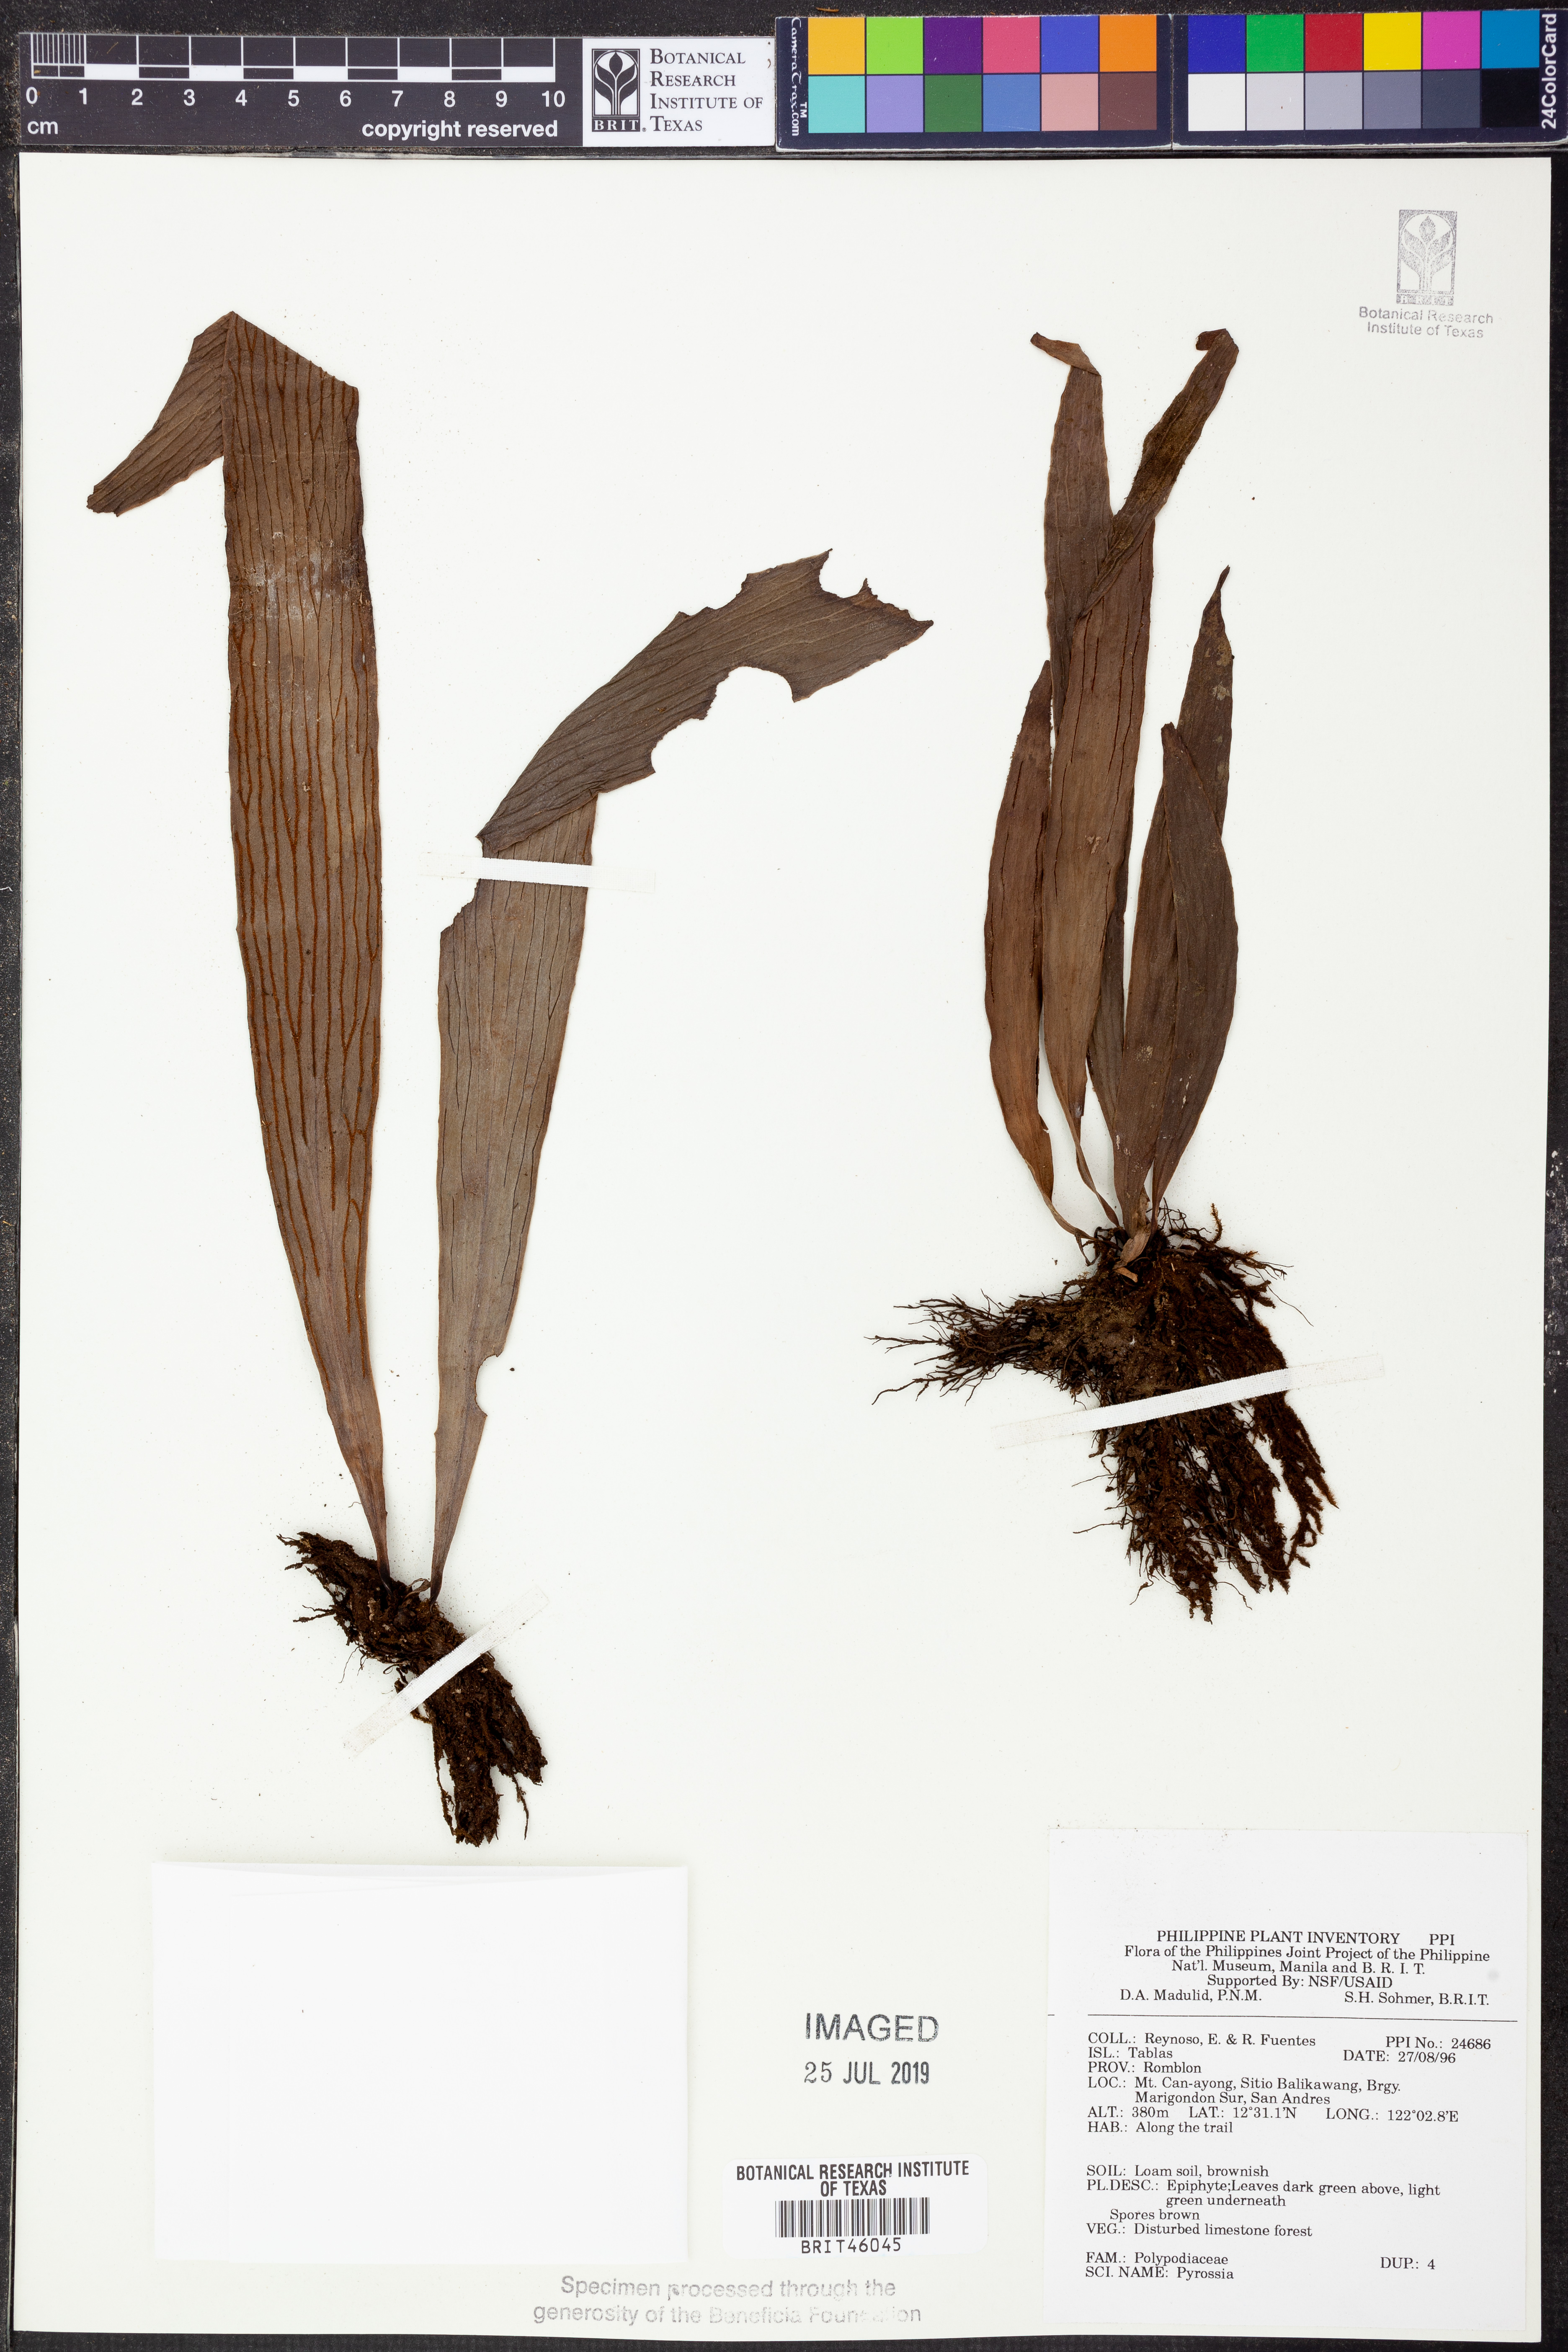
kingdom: Plantae
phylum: Tracheophyta
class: Polypodiopsida
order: Polypodiales
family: Polypodiaceae
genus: Pyrrosia
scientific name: Pyrrosia
